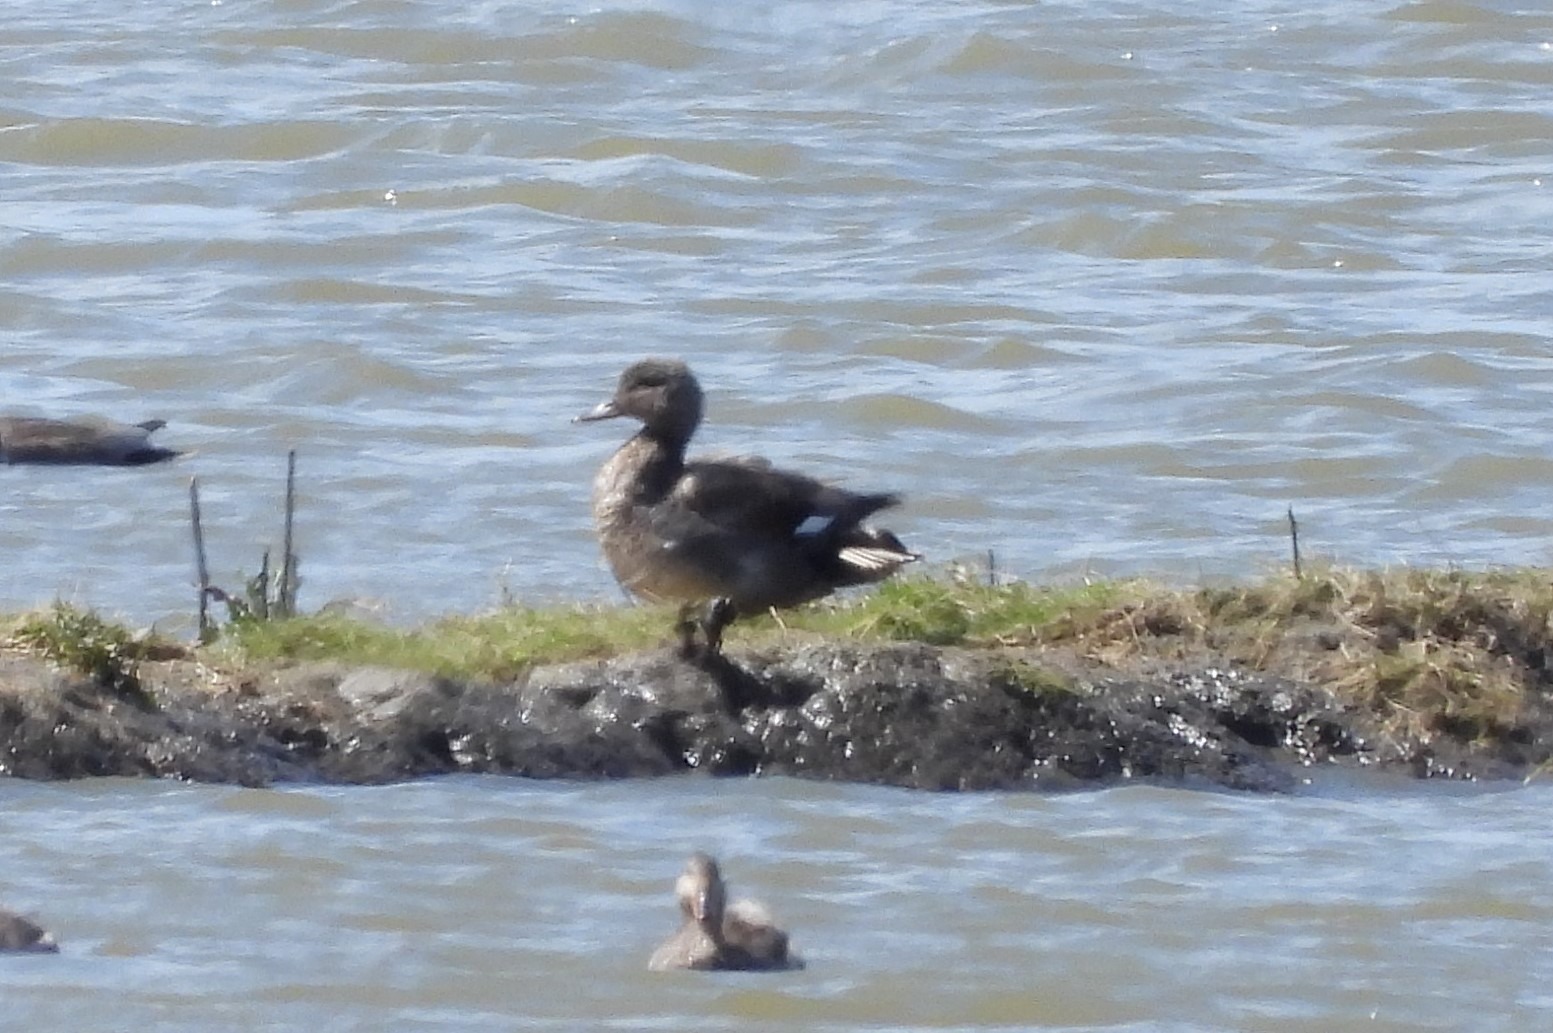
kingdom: Animalia
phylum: Chordata
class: Aves
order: Anseriformes
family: Anatidae
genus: Mareca
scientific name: Mareca strepera
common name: Knarand
